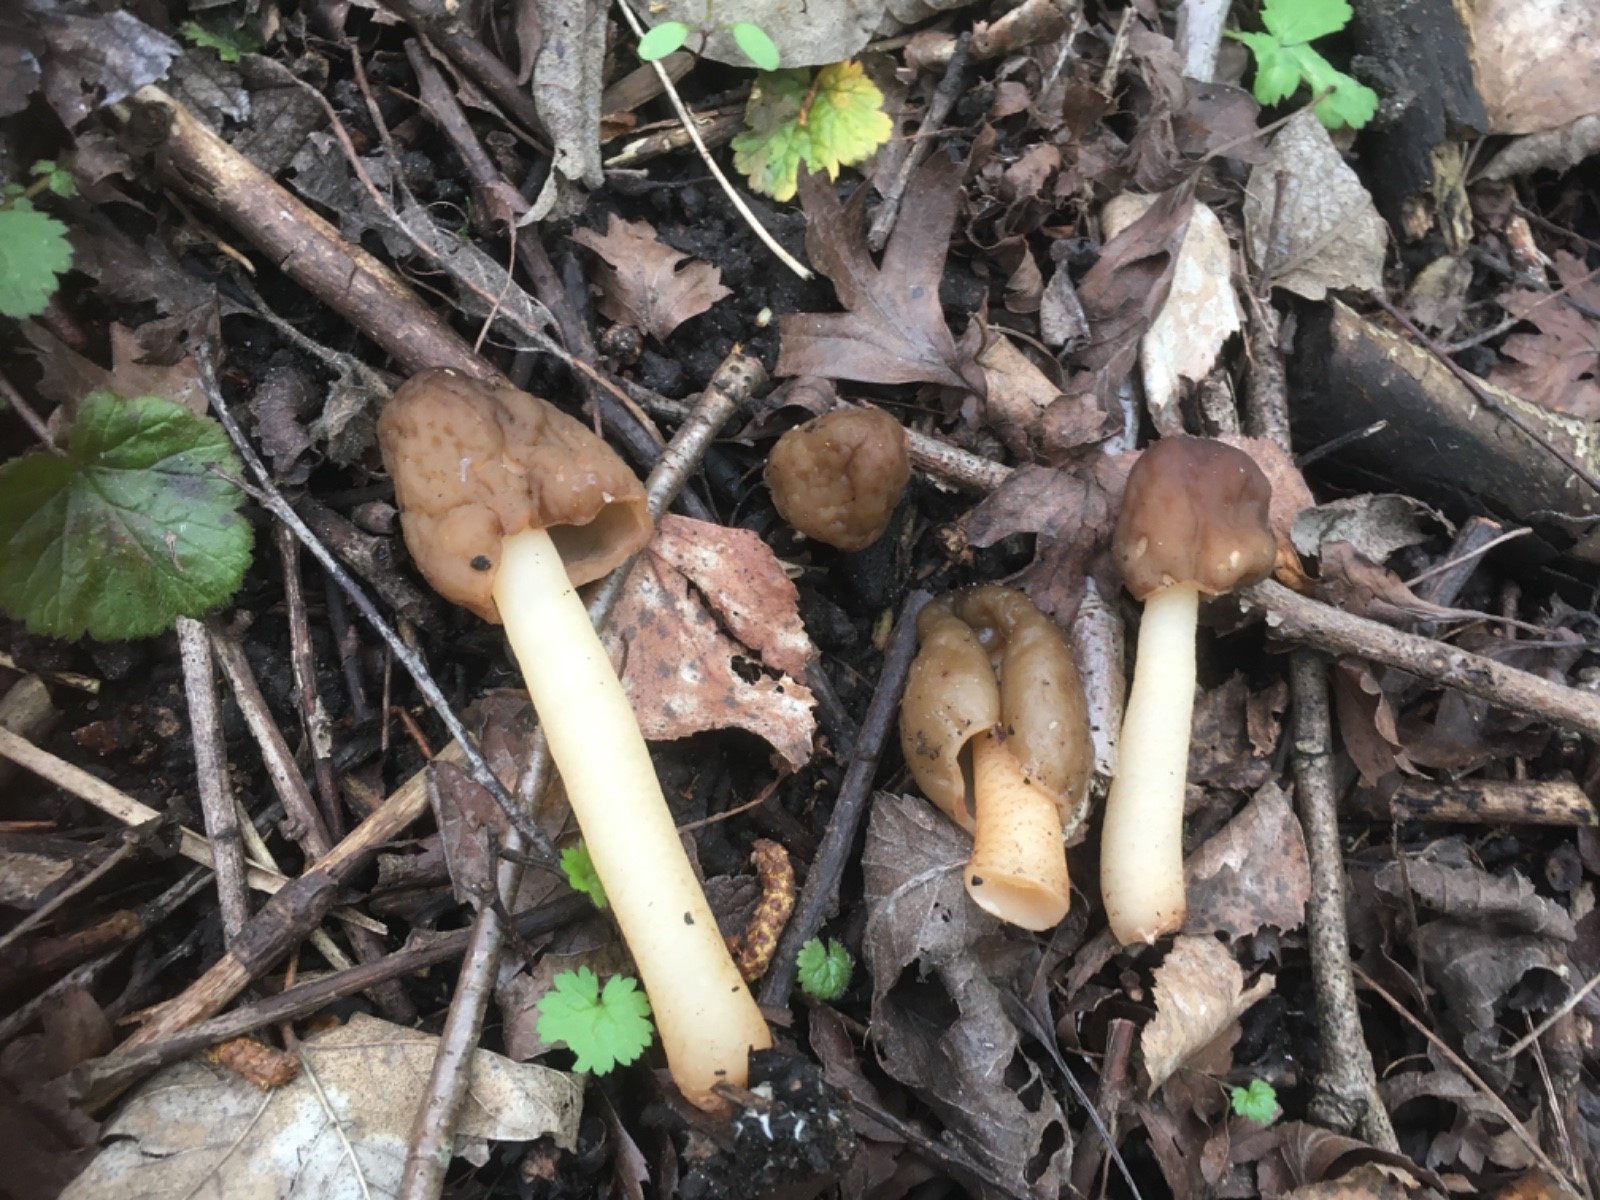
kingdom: Fungi
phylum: Ascomycota
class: Pezizomycetes
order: Pezizales
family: Morchellaceae
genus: Verpa
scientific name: Verpa conica
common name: glat klokkemorkel
